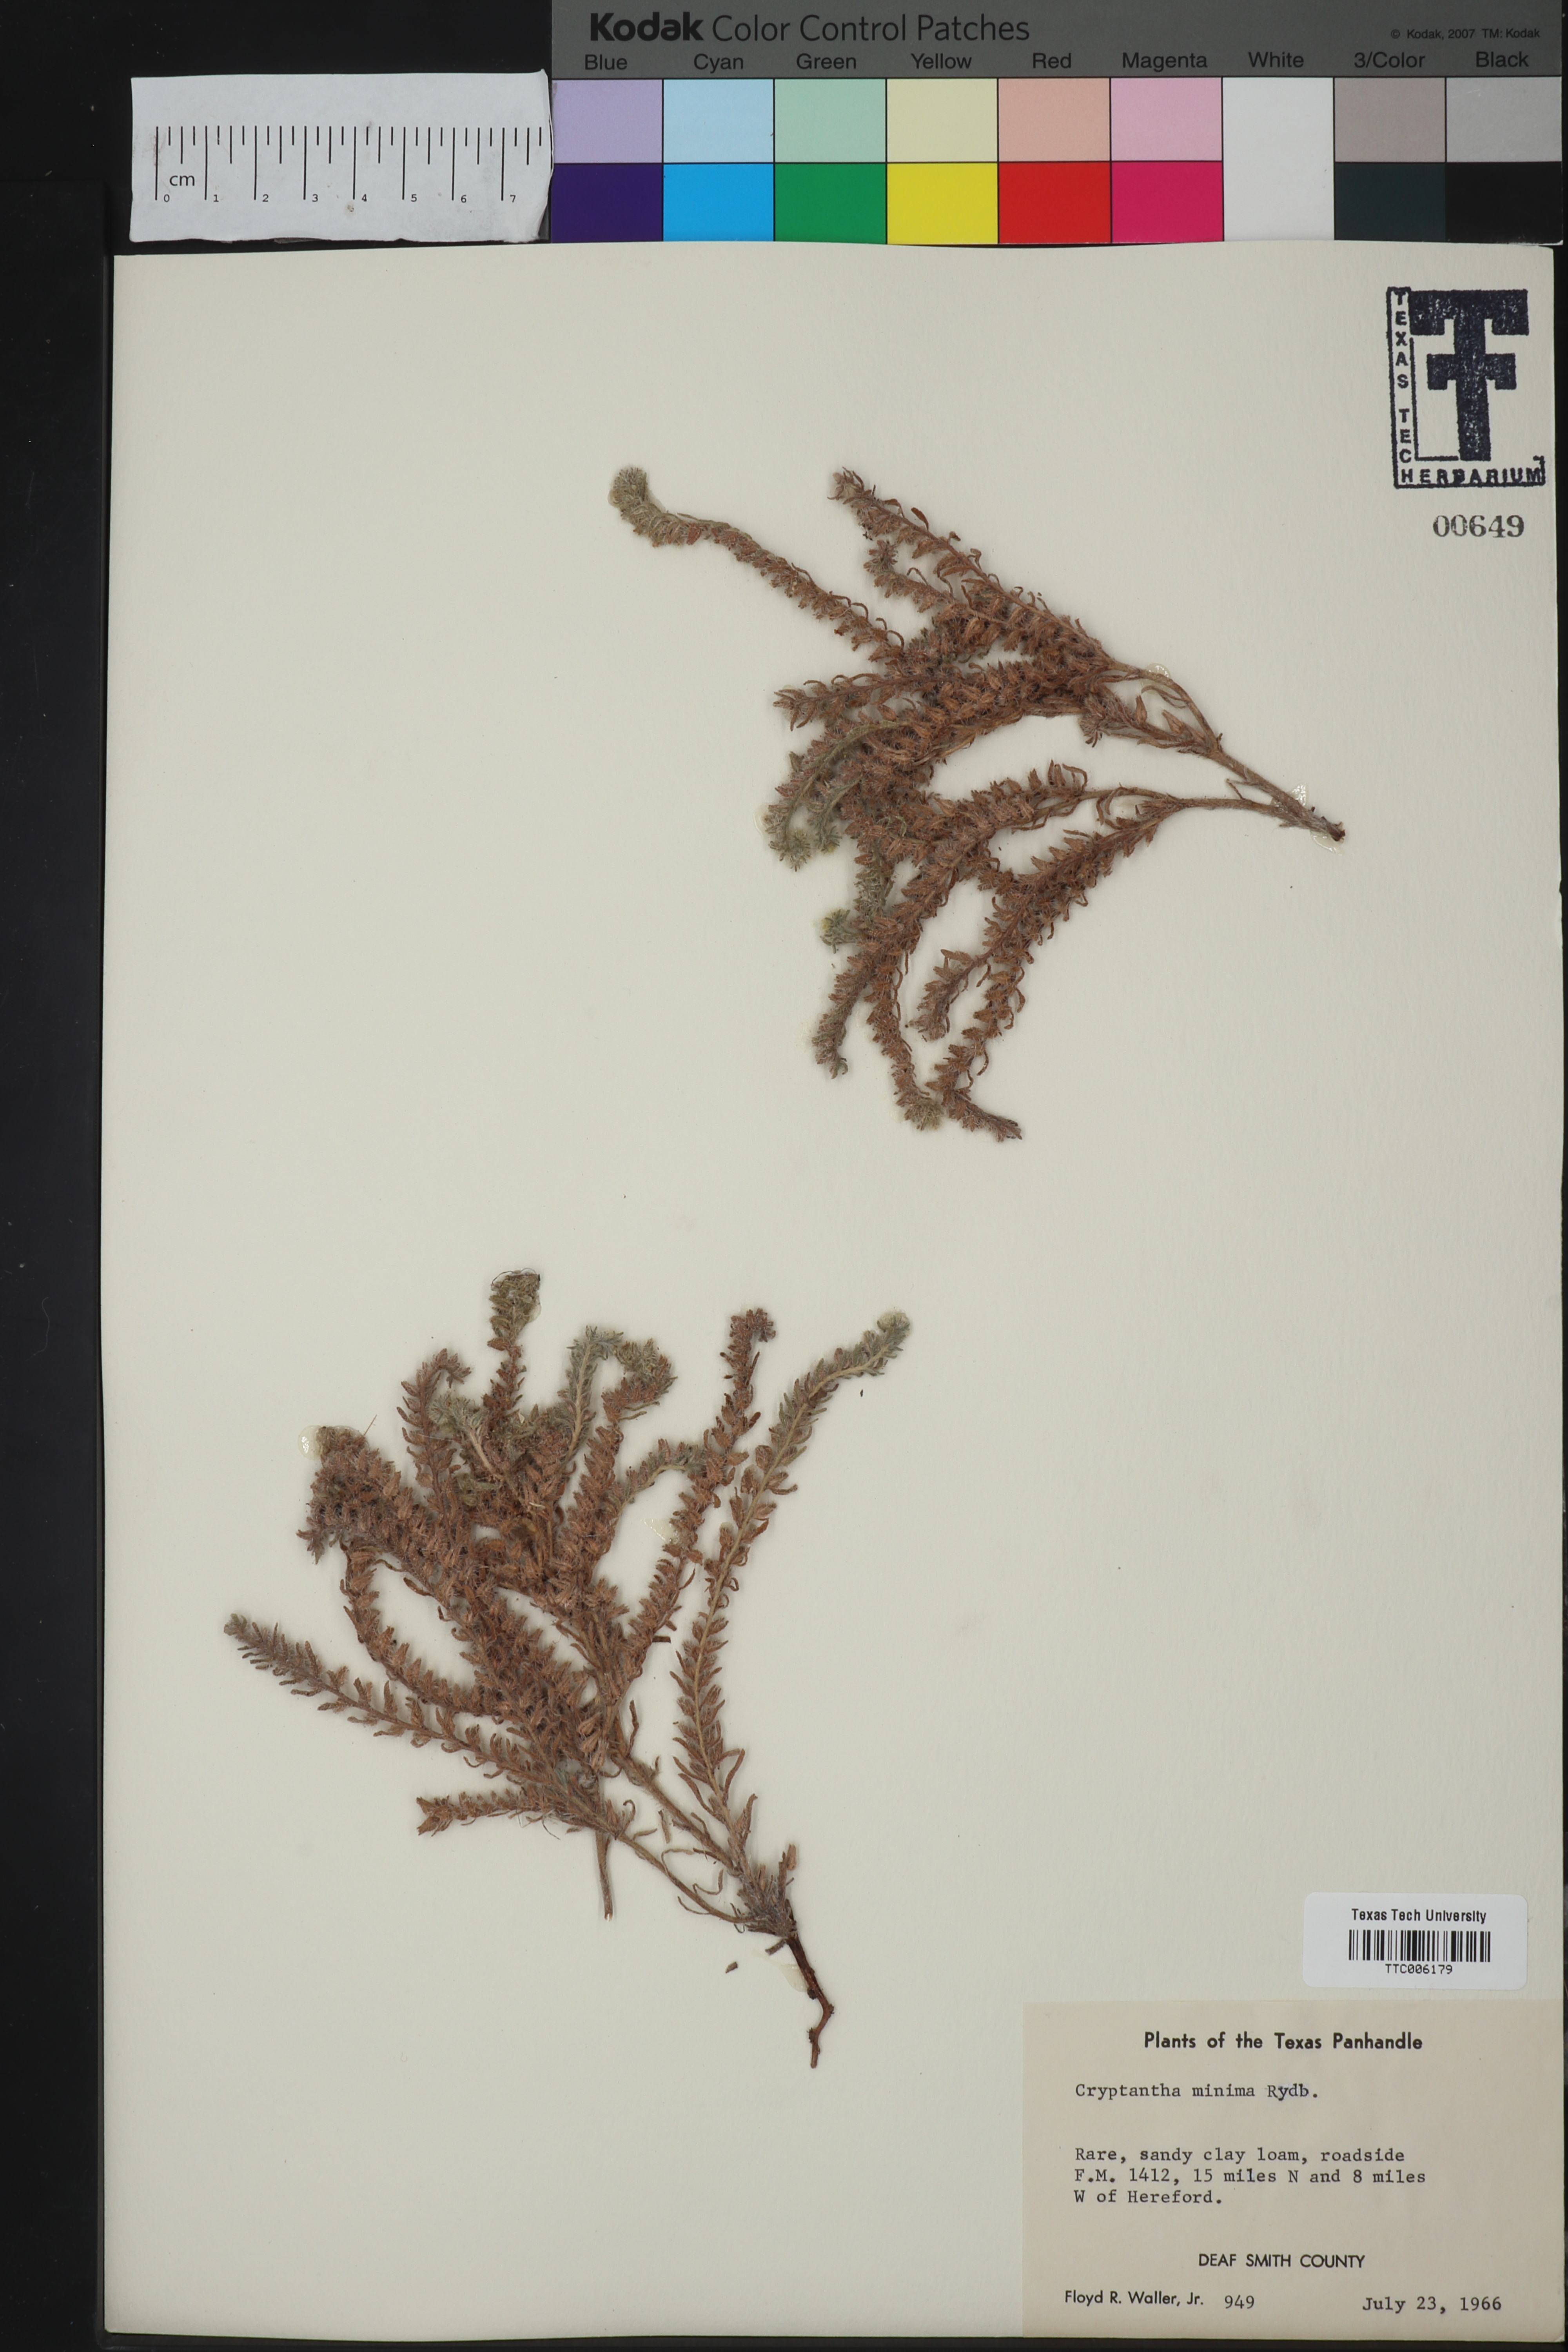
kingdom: Plantae
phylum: Tracheophyta
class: Magnoliopsida
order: Boraginales
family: Boraginaceae
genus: Cryptantha
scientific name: Cryptantha minima
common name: Little cat's-eye
